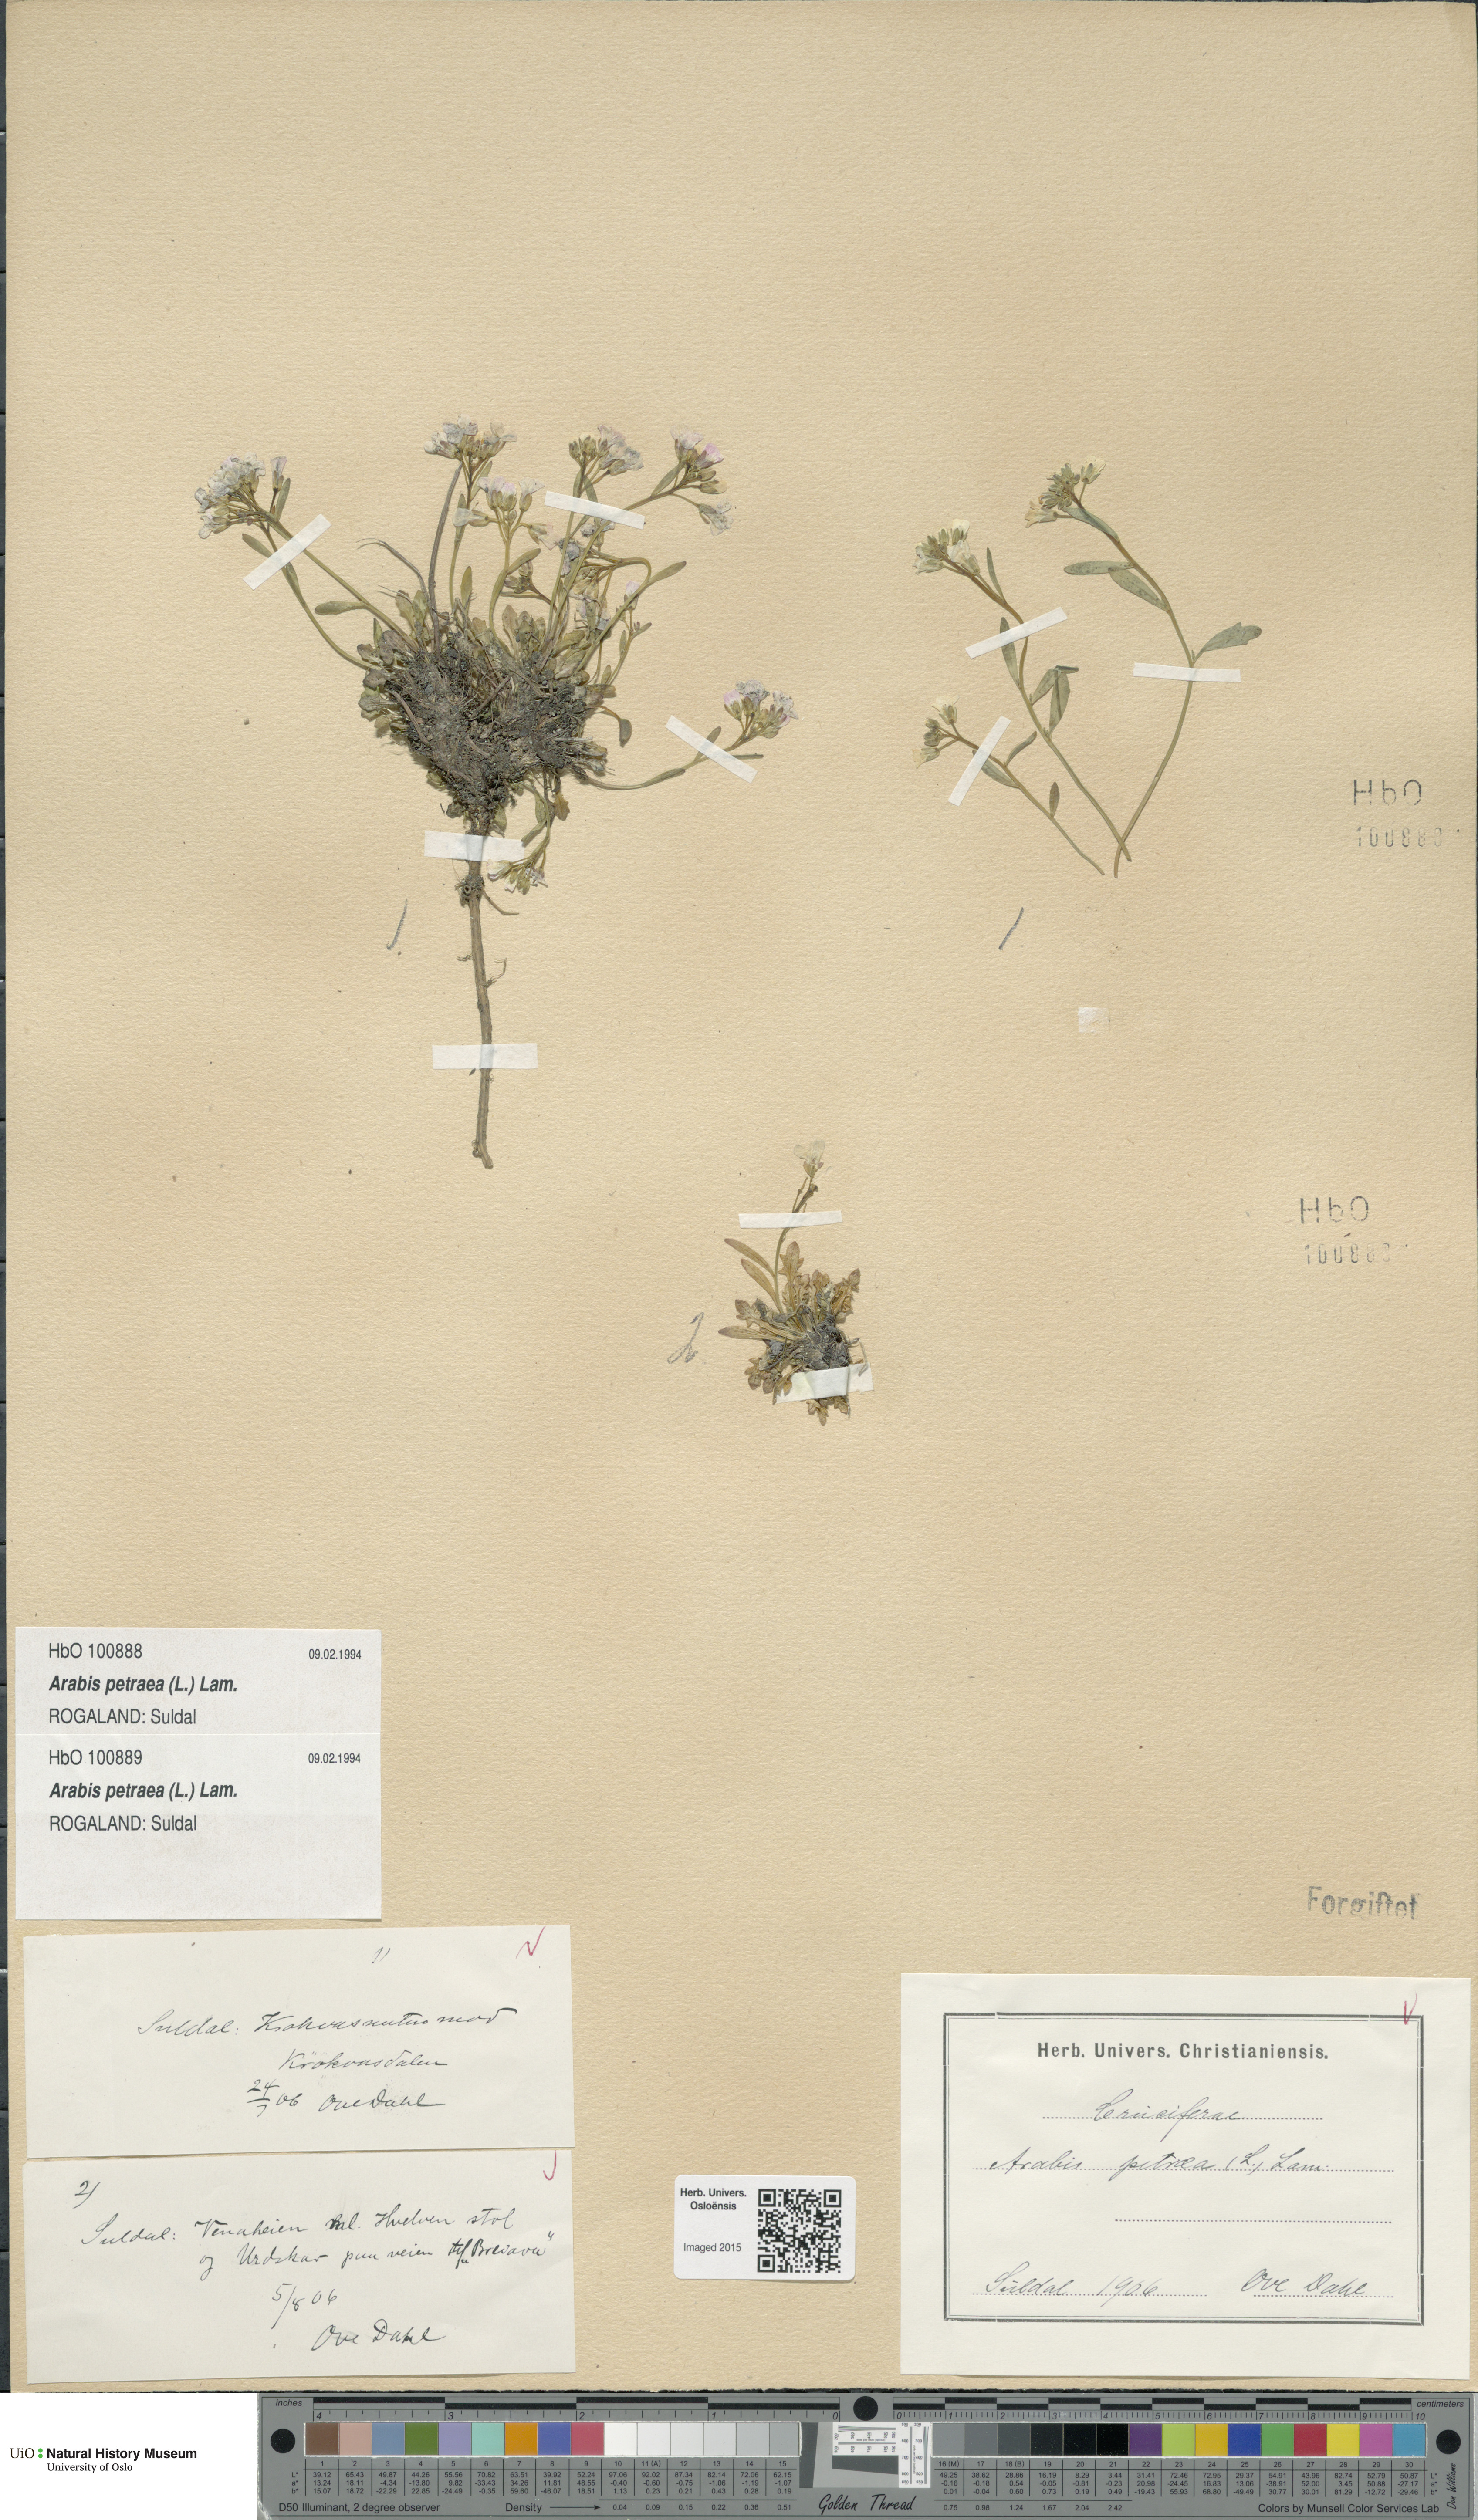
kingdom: Plantae
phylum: Tracheophyta
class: Magnoliopsida
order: Brassicales
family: Brassicaceae
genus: Arabidopsis
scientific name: Arabidopsis petraea
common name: Northern rock-cress
